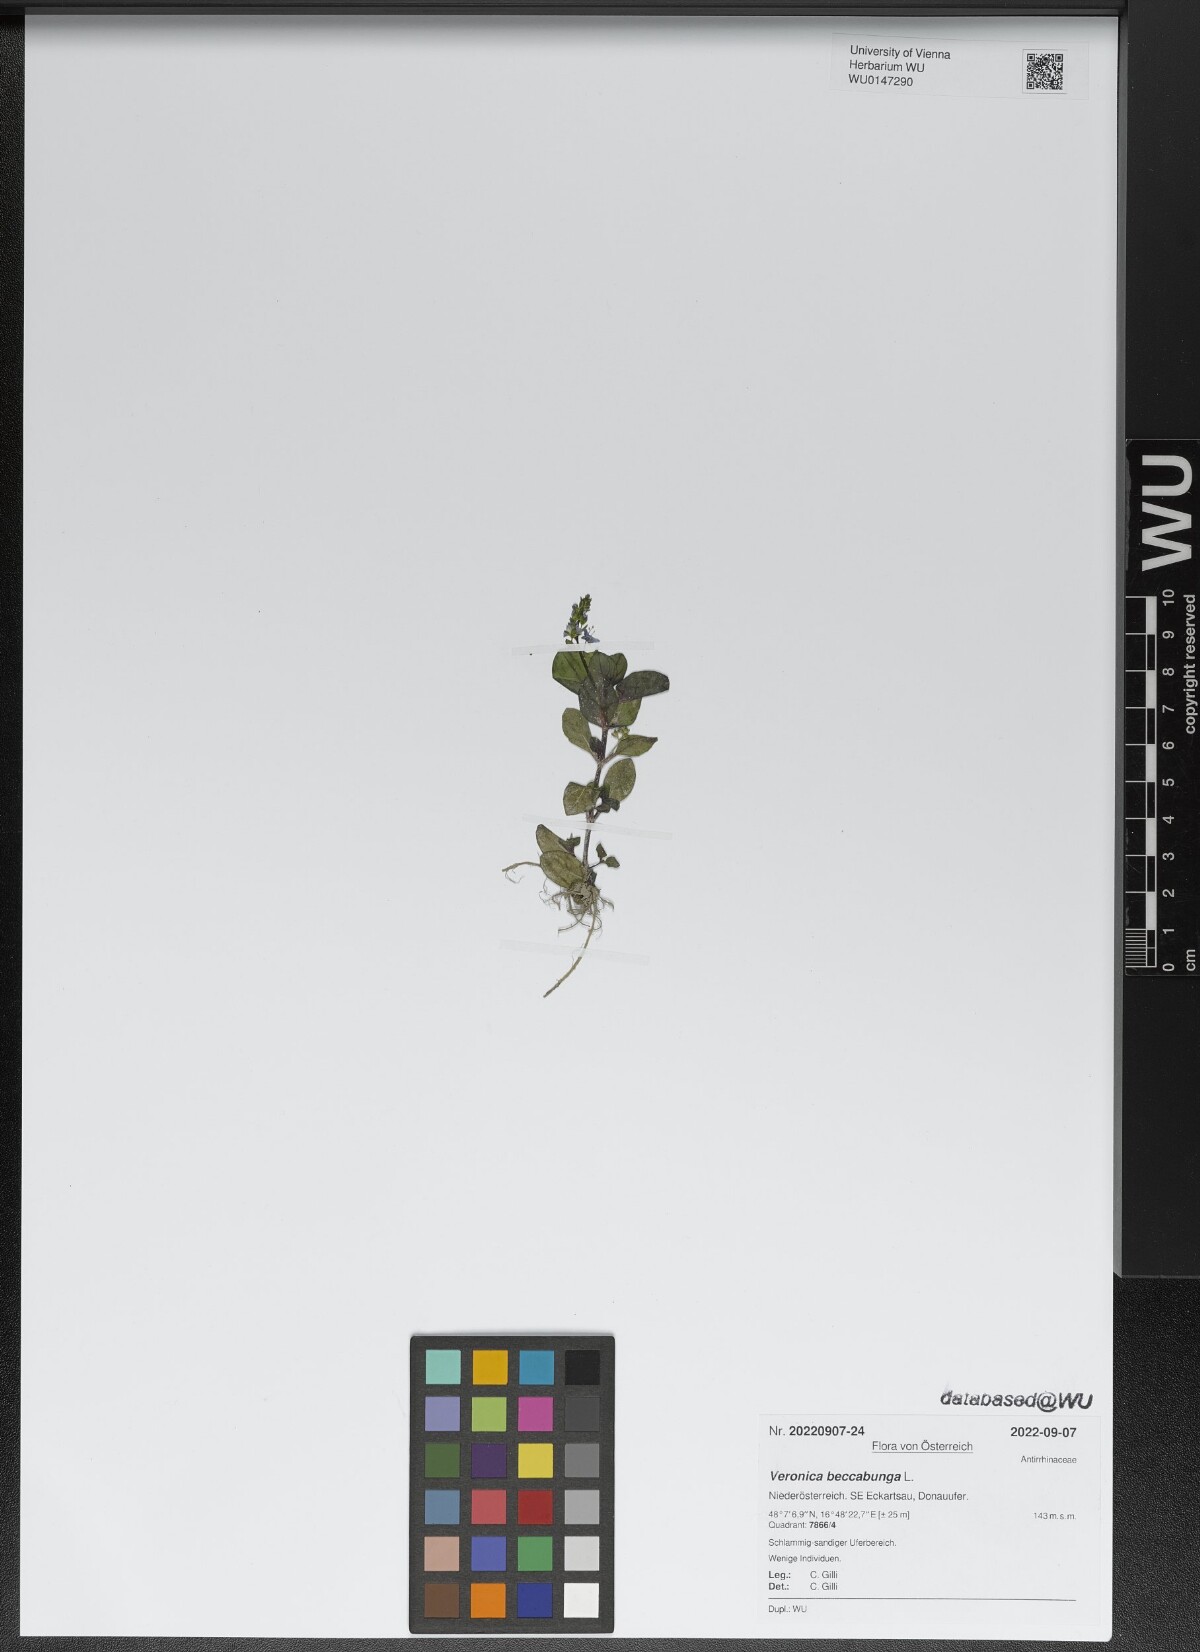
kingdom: Plantae
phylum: Tracheophyta
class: Magnoliopsida
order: Lamiales
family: Plantaginaceae
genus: Veronica
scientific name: Veronica beccabunga
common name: Brooklime
